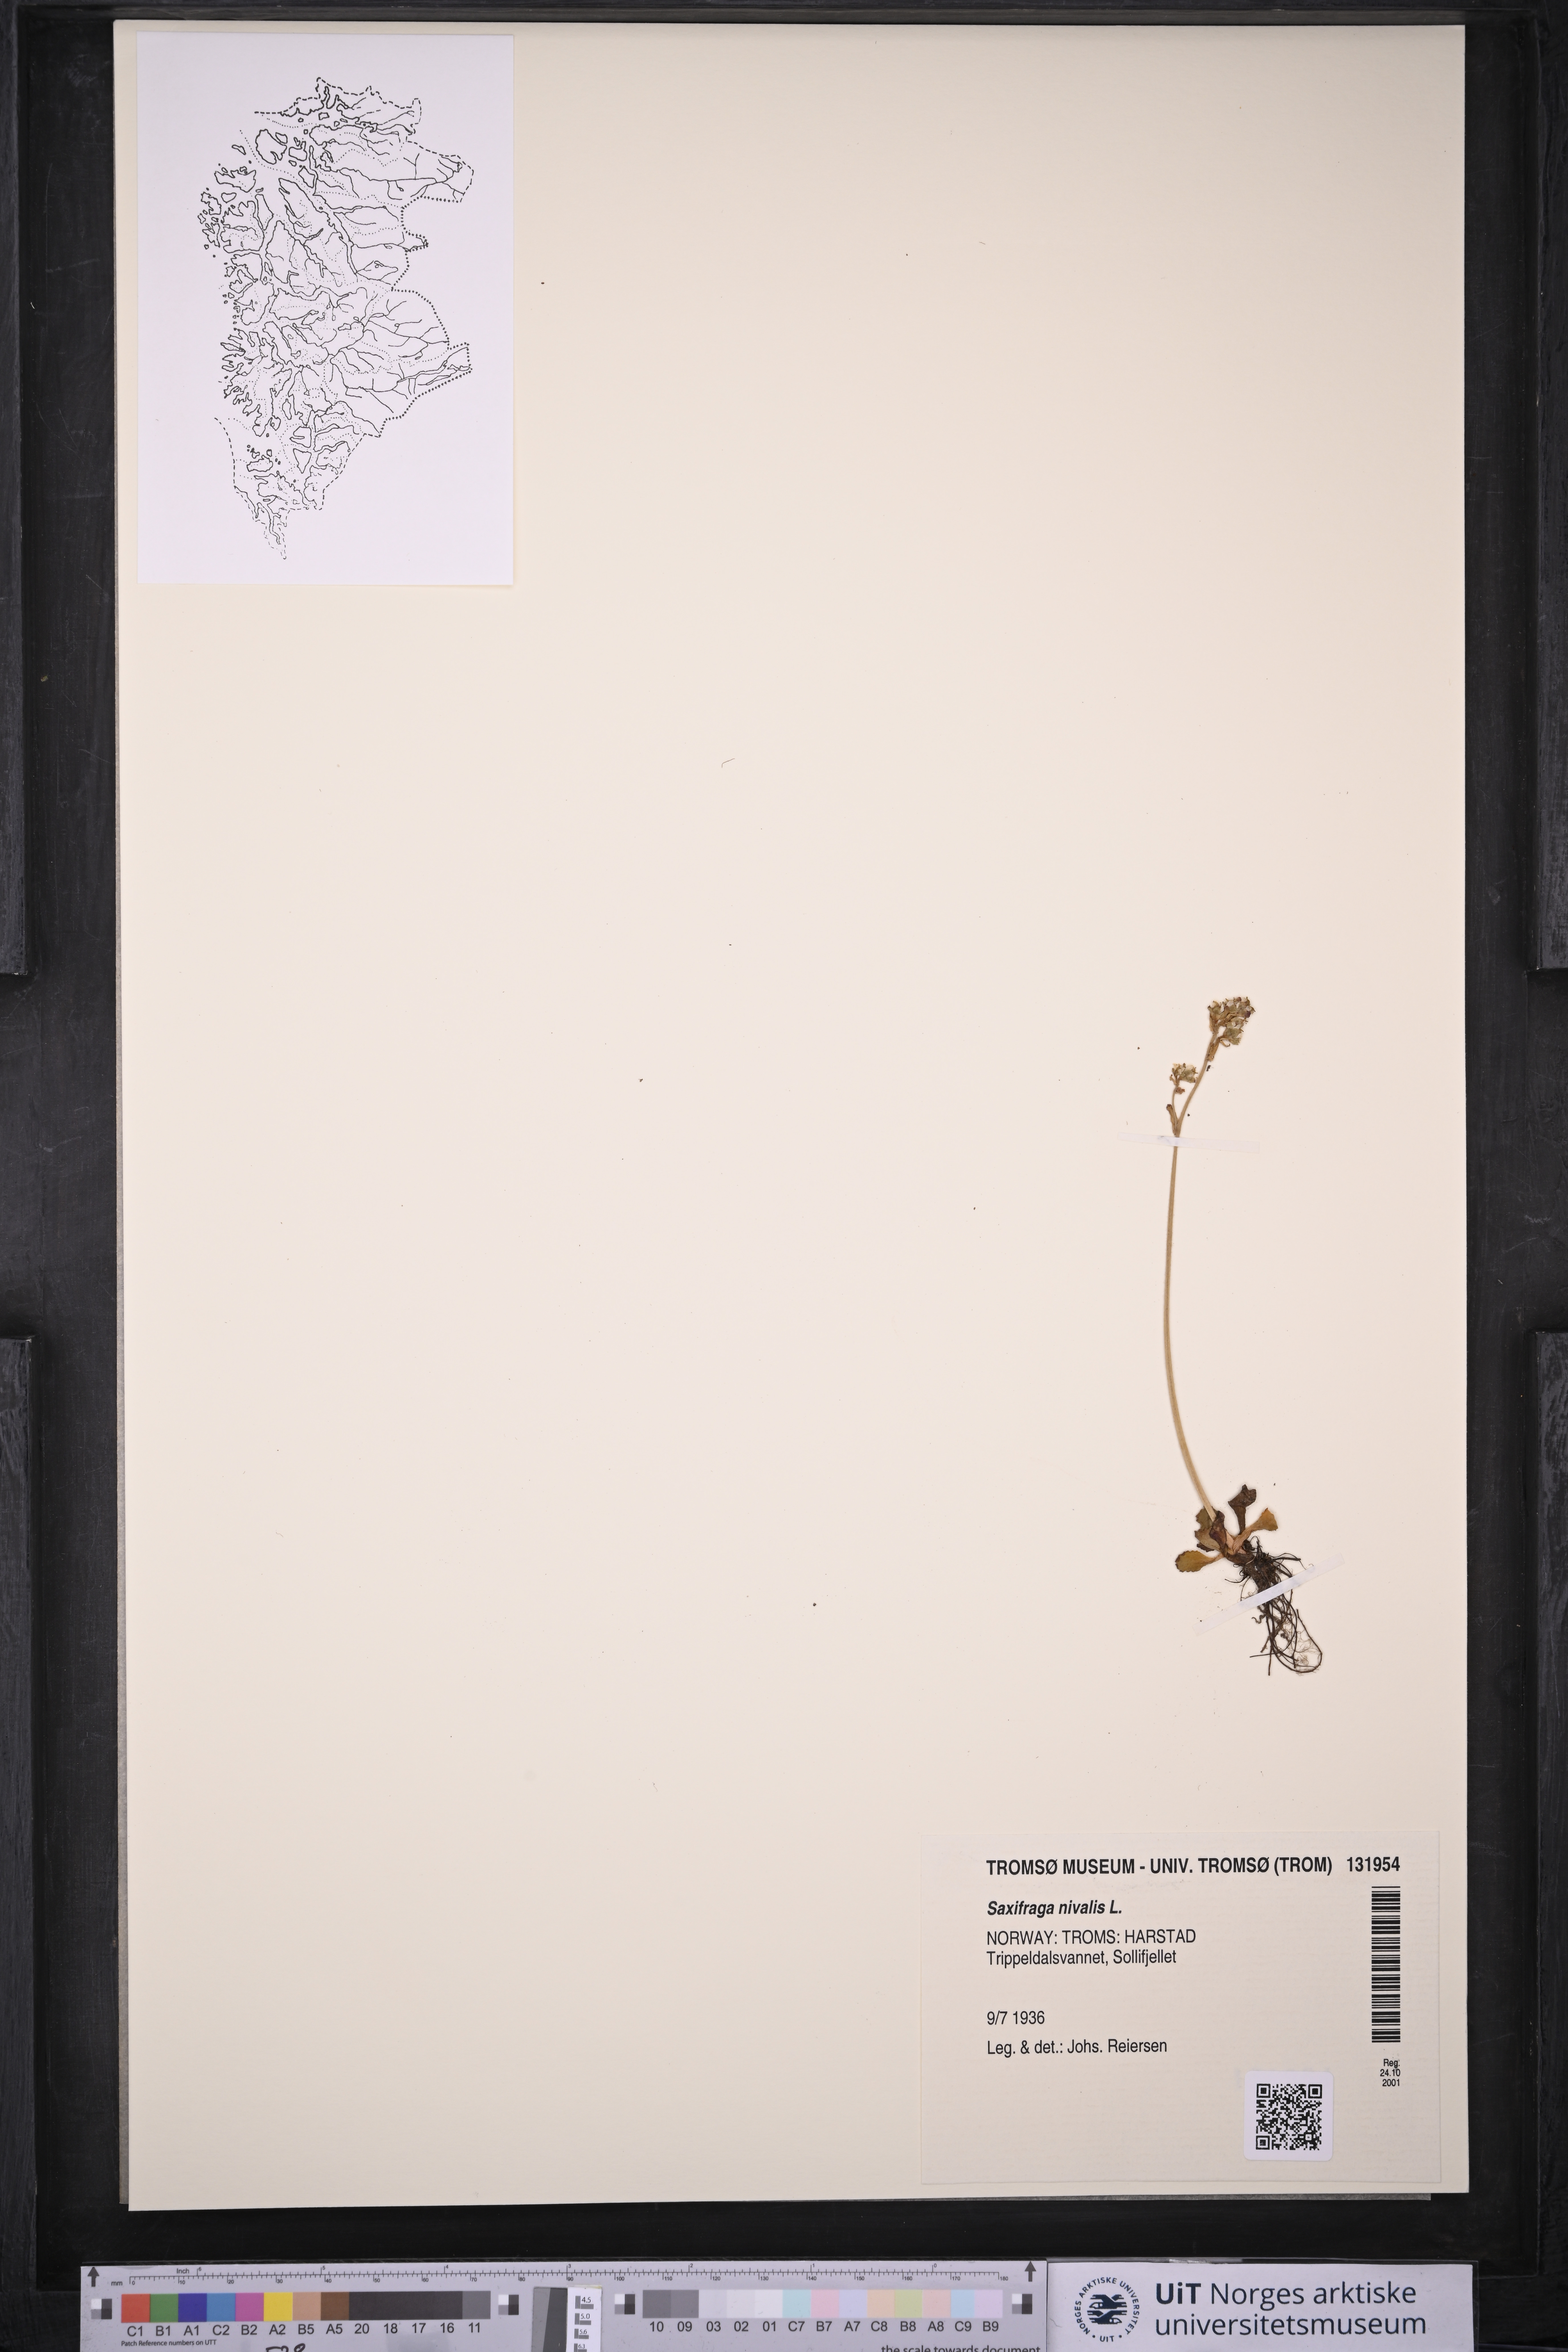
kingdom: Plantae
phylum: Tracheophyta
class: Magnoliopsida
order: Saxifragales
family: Saxifragaceae
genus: Micranthes
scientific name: Micranthes nivalis
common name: Alpine saxifrage
